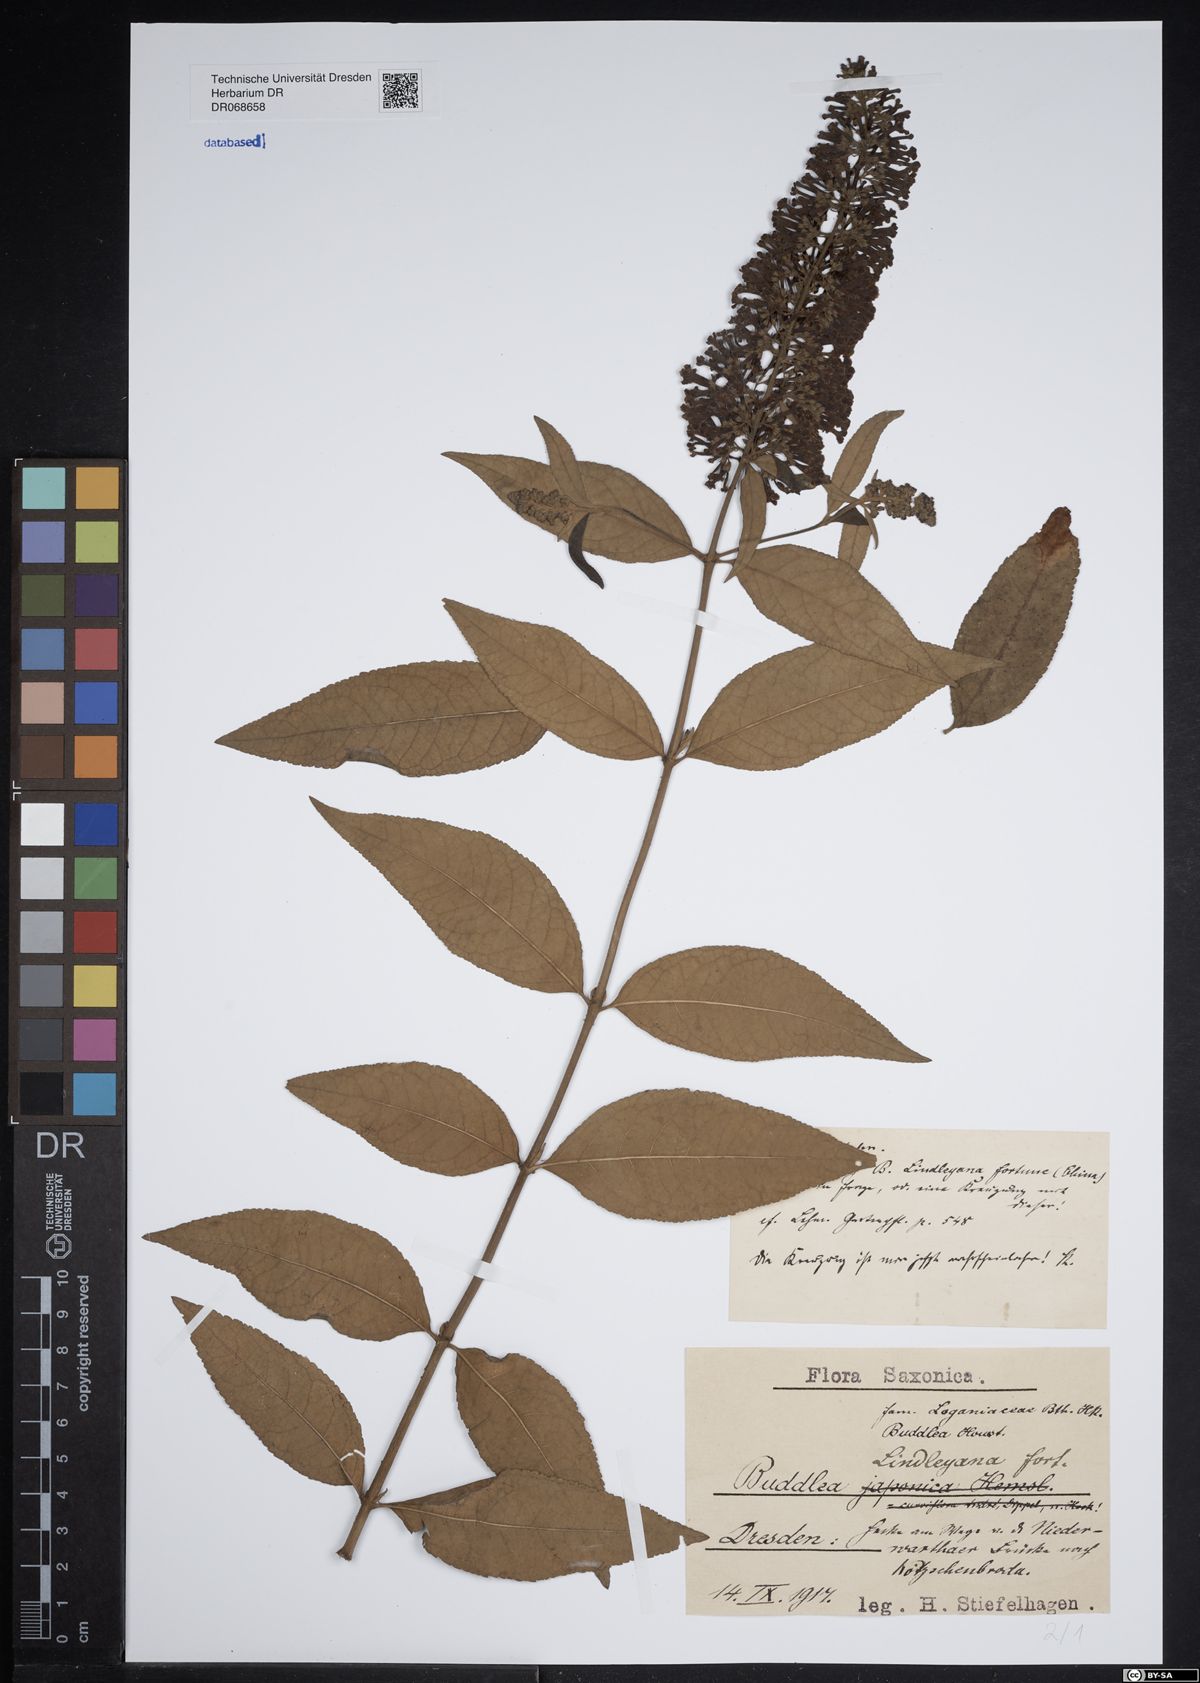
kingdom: Plantae
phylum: Tracheophyta
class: Magnoliopsida
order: Lamiales
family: Scrophulariaceae
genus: Buddleja
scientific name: Buddleja lindleyana
